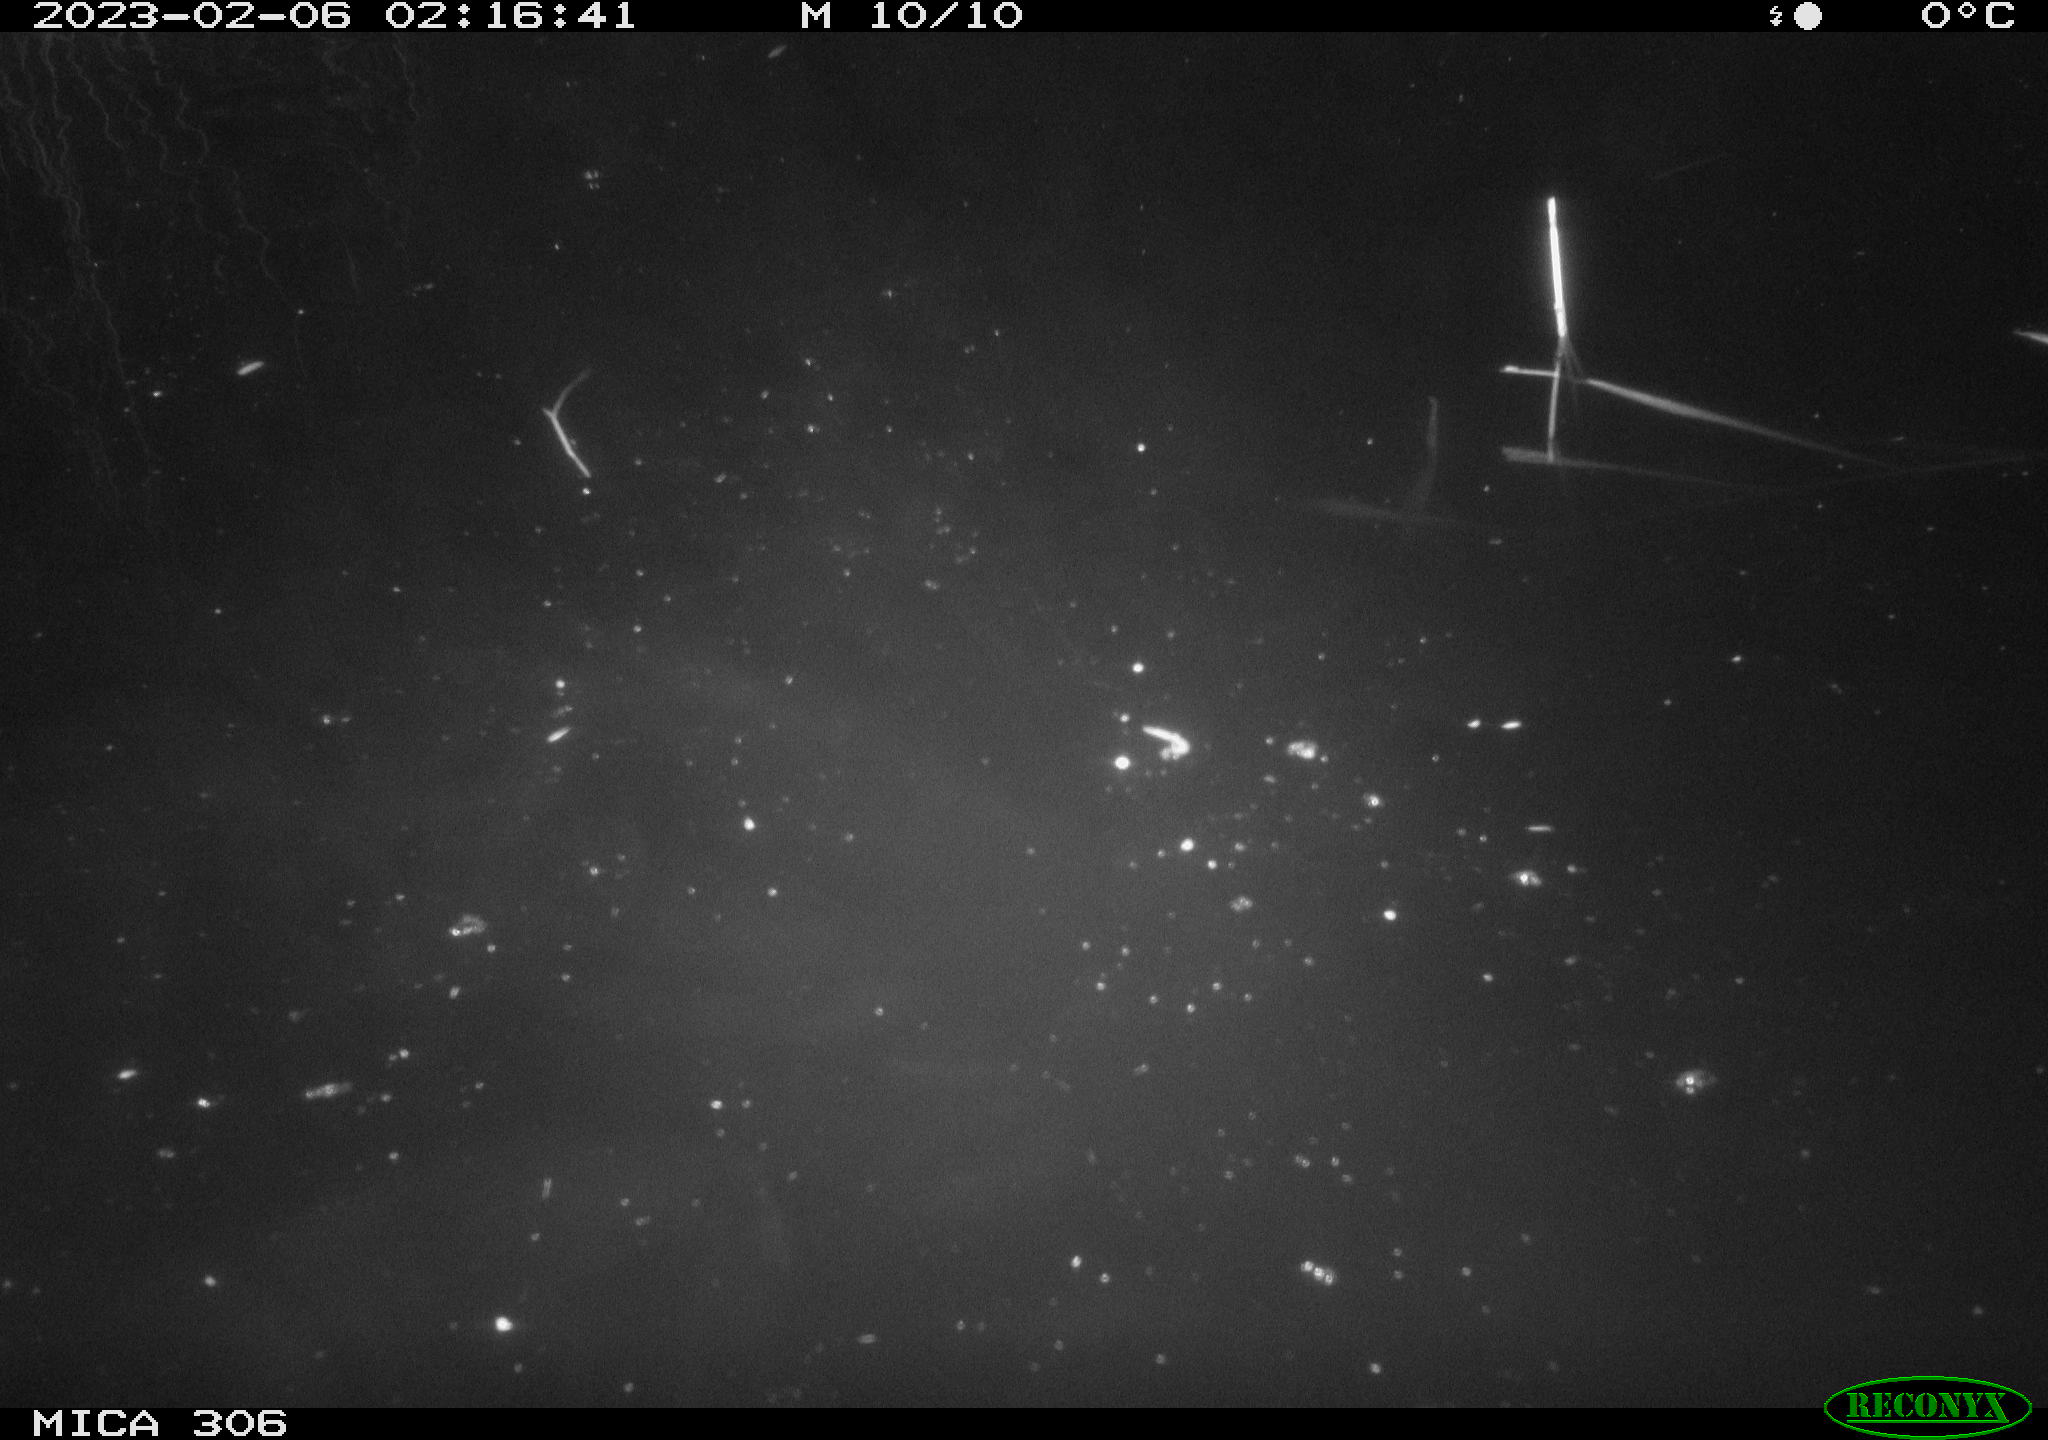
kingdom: Animalia
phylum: Chordata
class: Mammalia
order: Rodentia
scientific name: Rodentia
